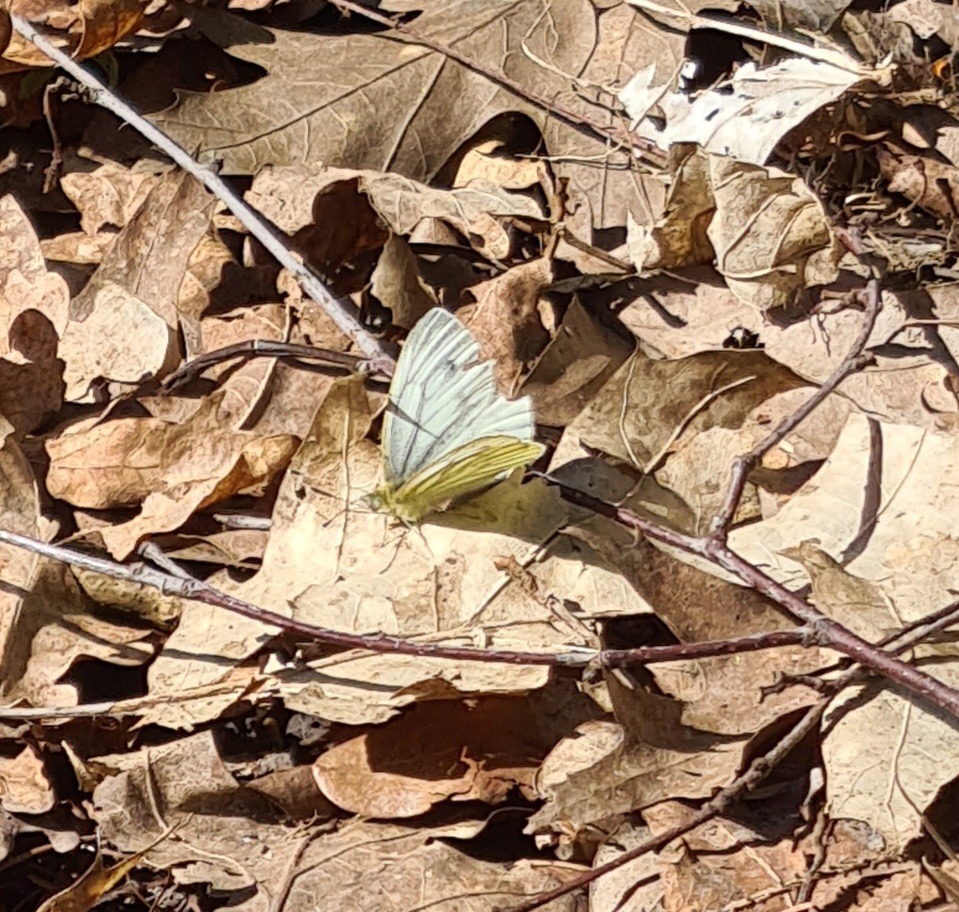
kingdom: Animalia
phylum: Arthropoda
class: Insecta
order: Lepidoptera
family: Pieridae
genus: Pieris
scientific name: Pieris napi
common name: Grønåret kålsommerfugl
